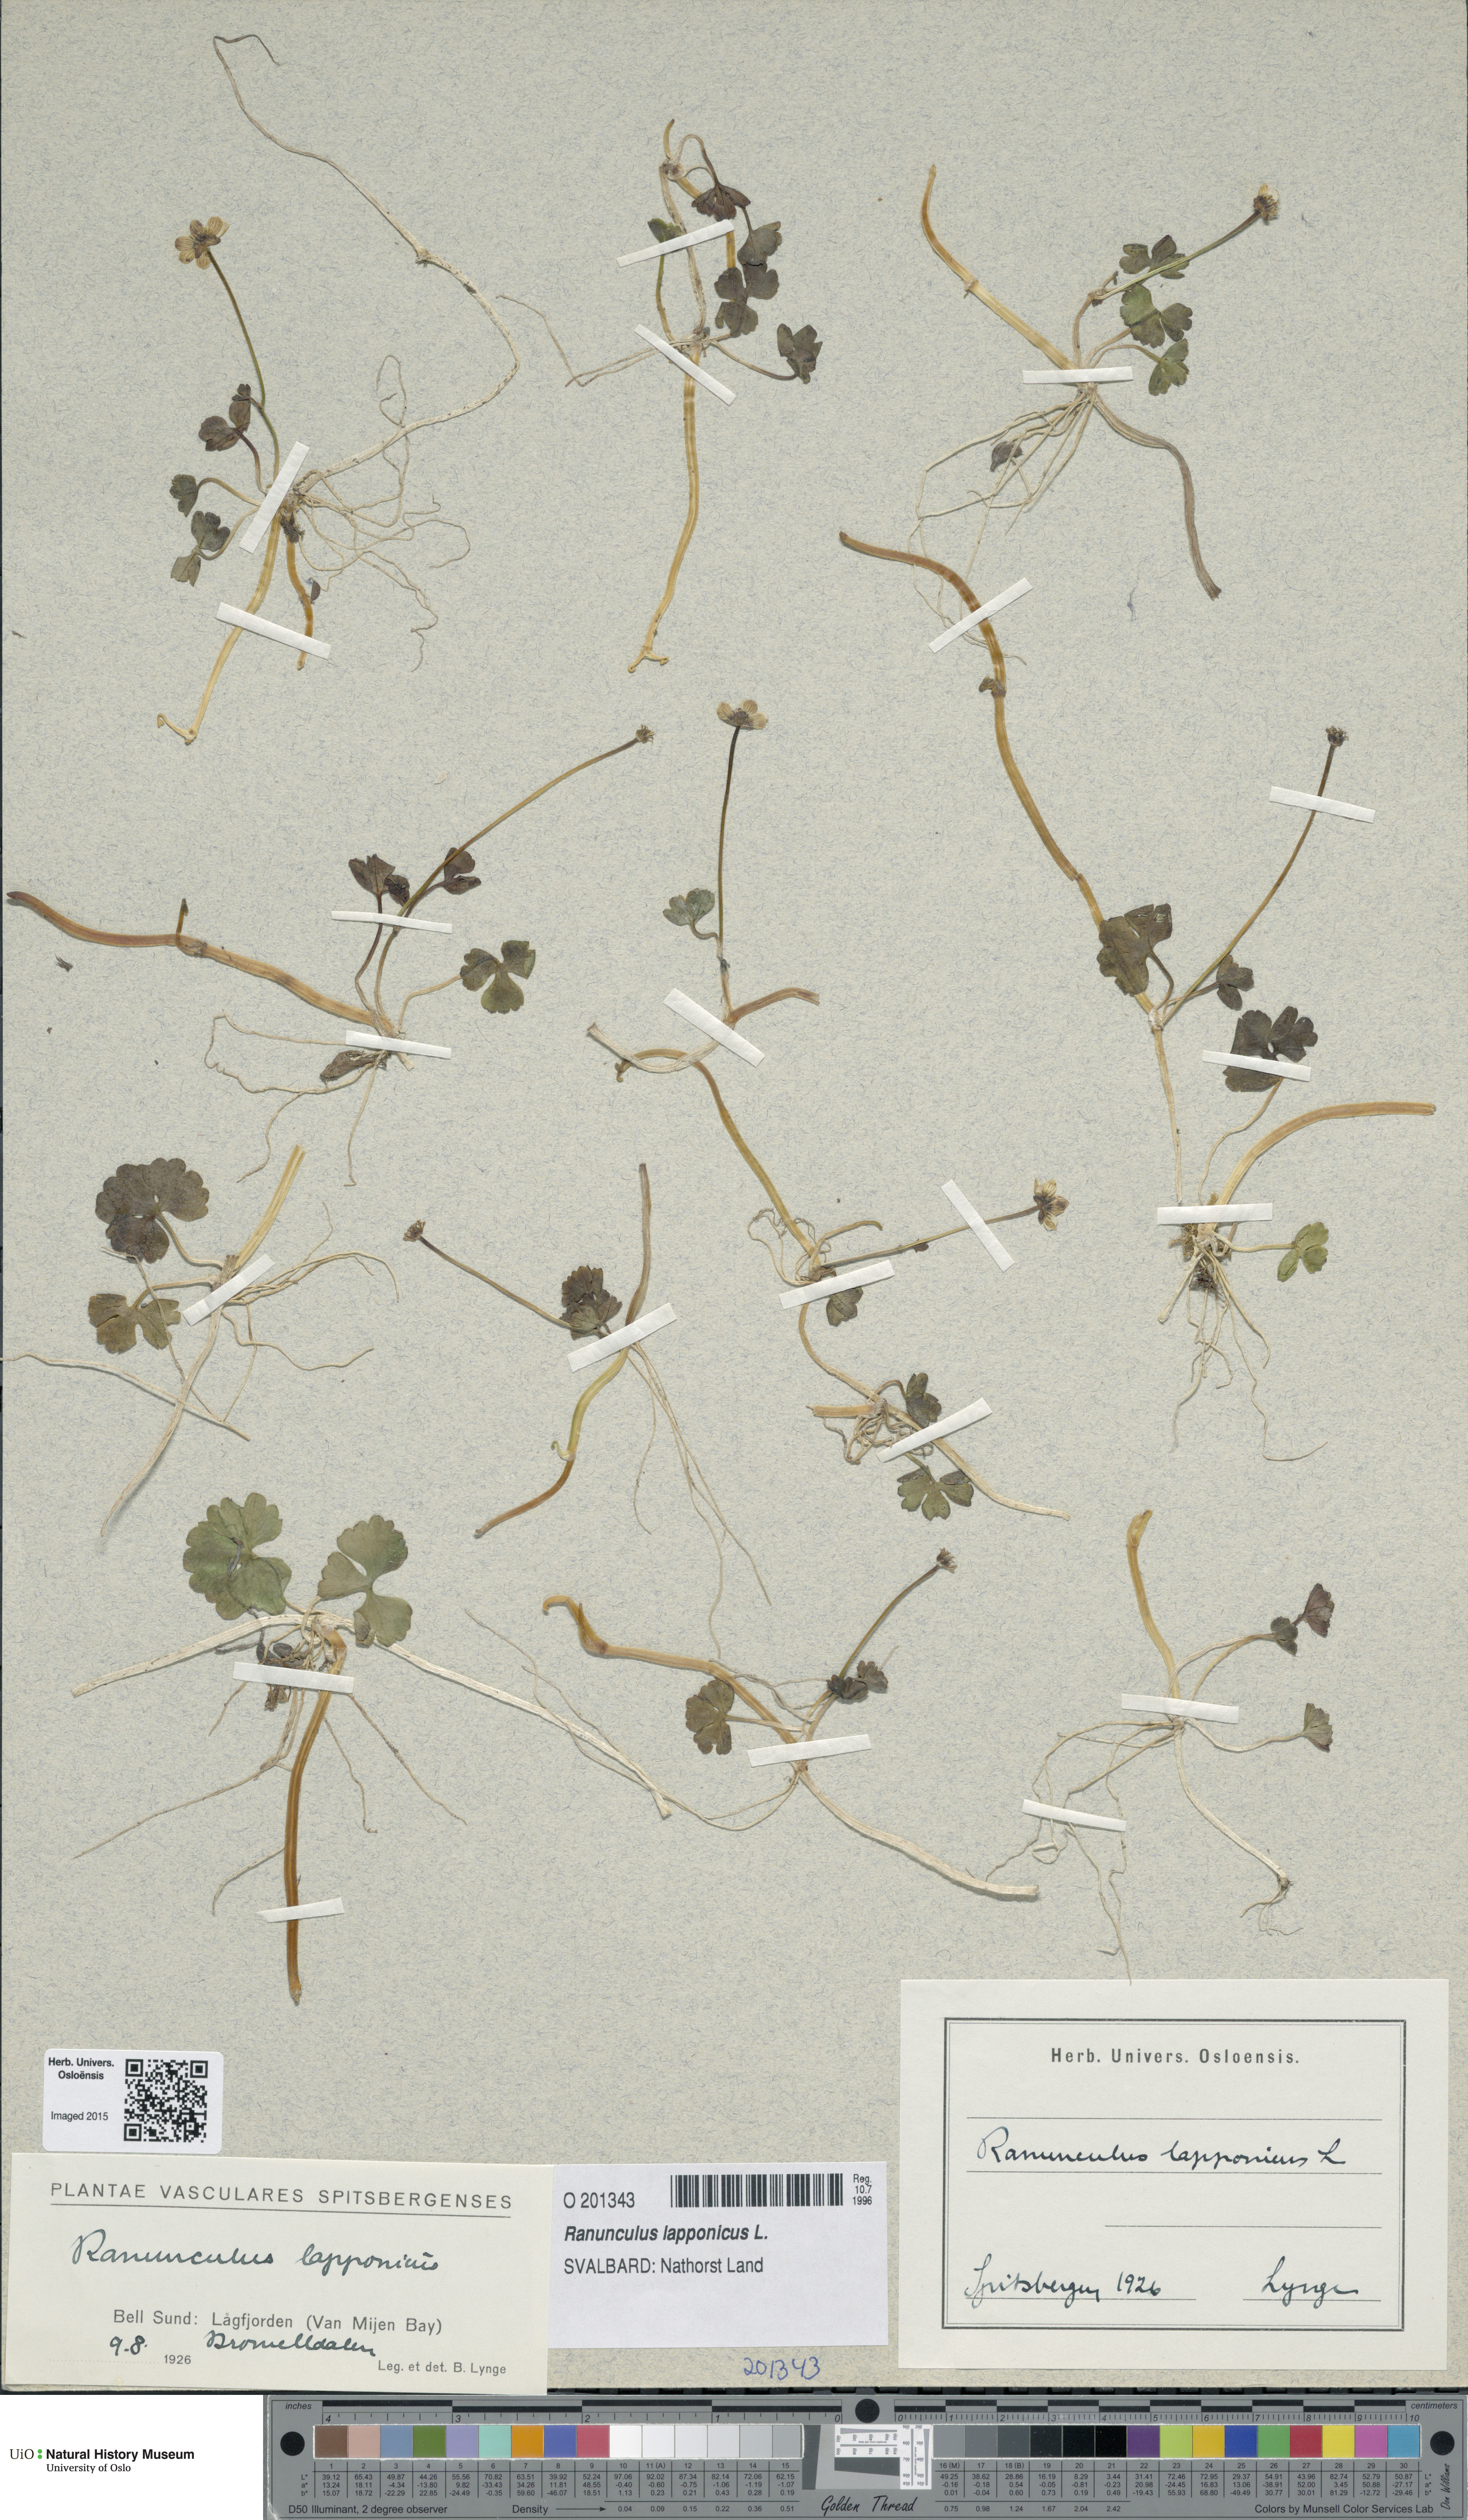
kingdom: Plantae
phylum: Tracheophyta
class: Magnoliopsida
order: Ranunculales
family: Ranunculaceae
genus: Coptidium
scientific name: Coptidium lapponicum
